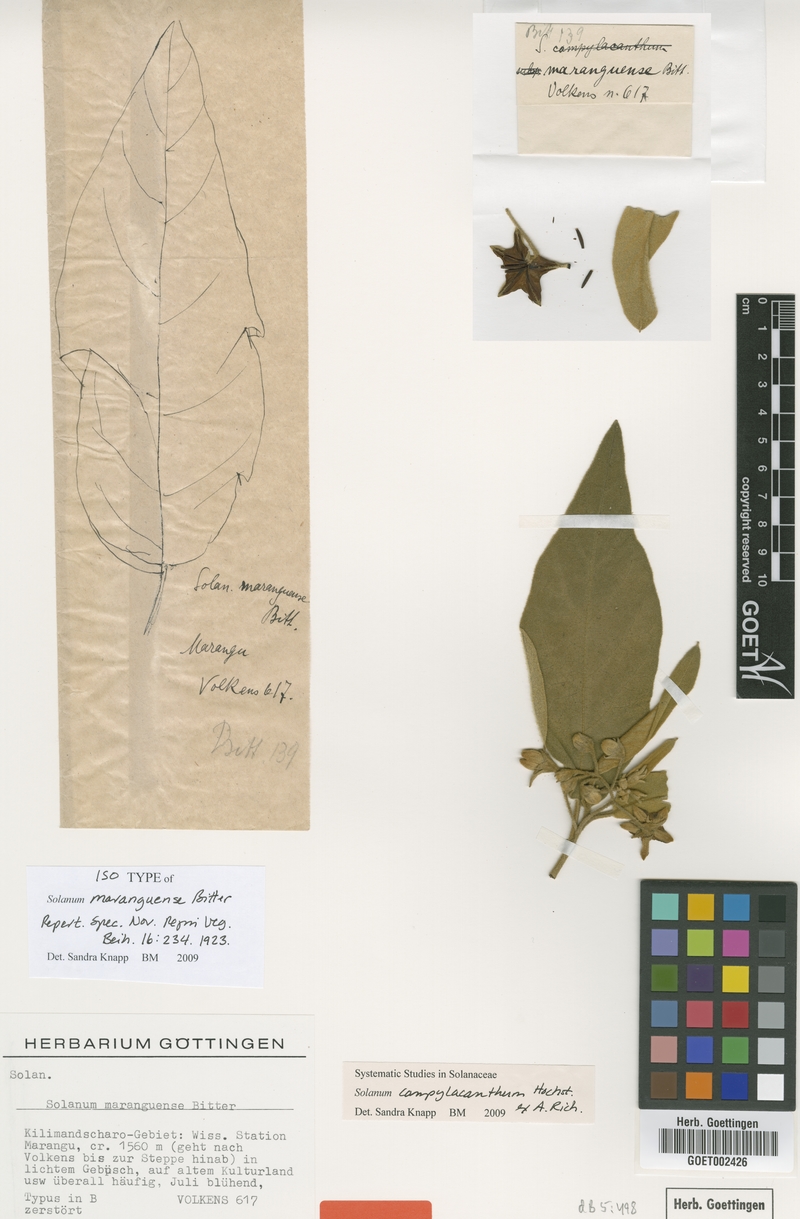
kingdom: Plantae
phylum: Tracheophyta
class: Magnoliopsida
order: Solanales
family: Solanaceae
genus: Solanum
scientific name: Solanum campylacanthum
